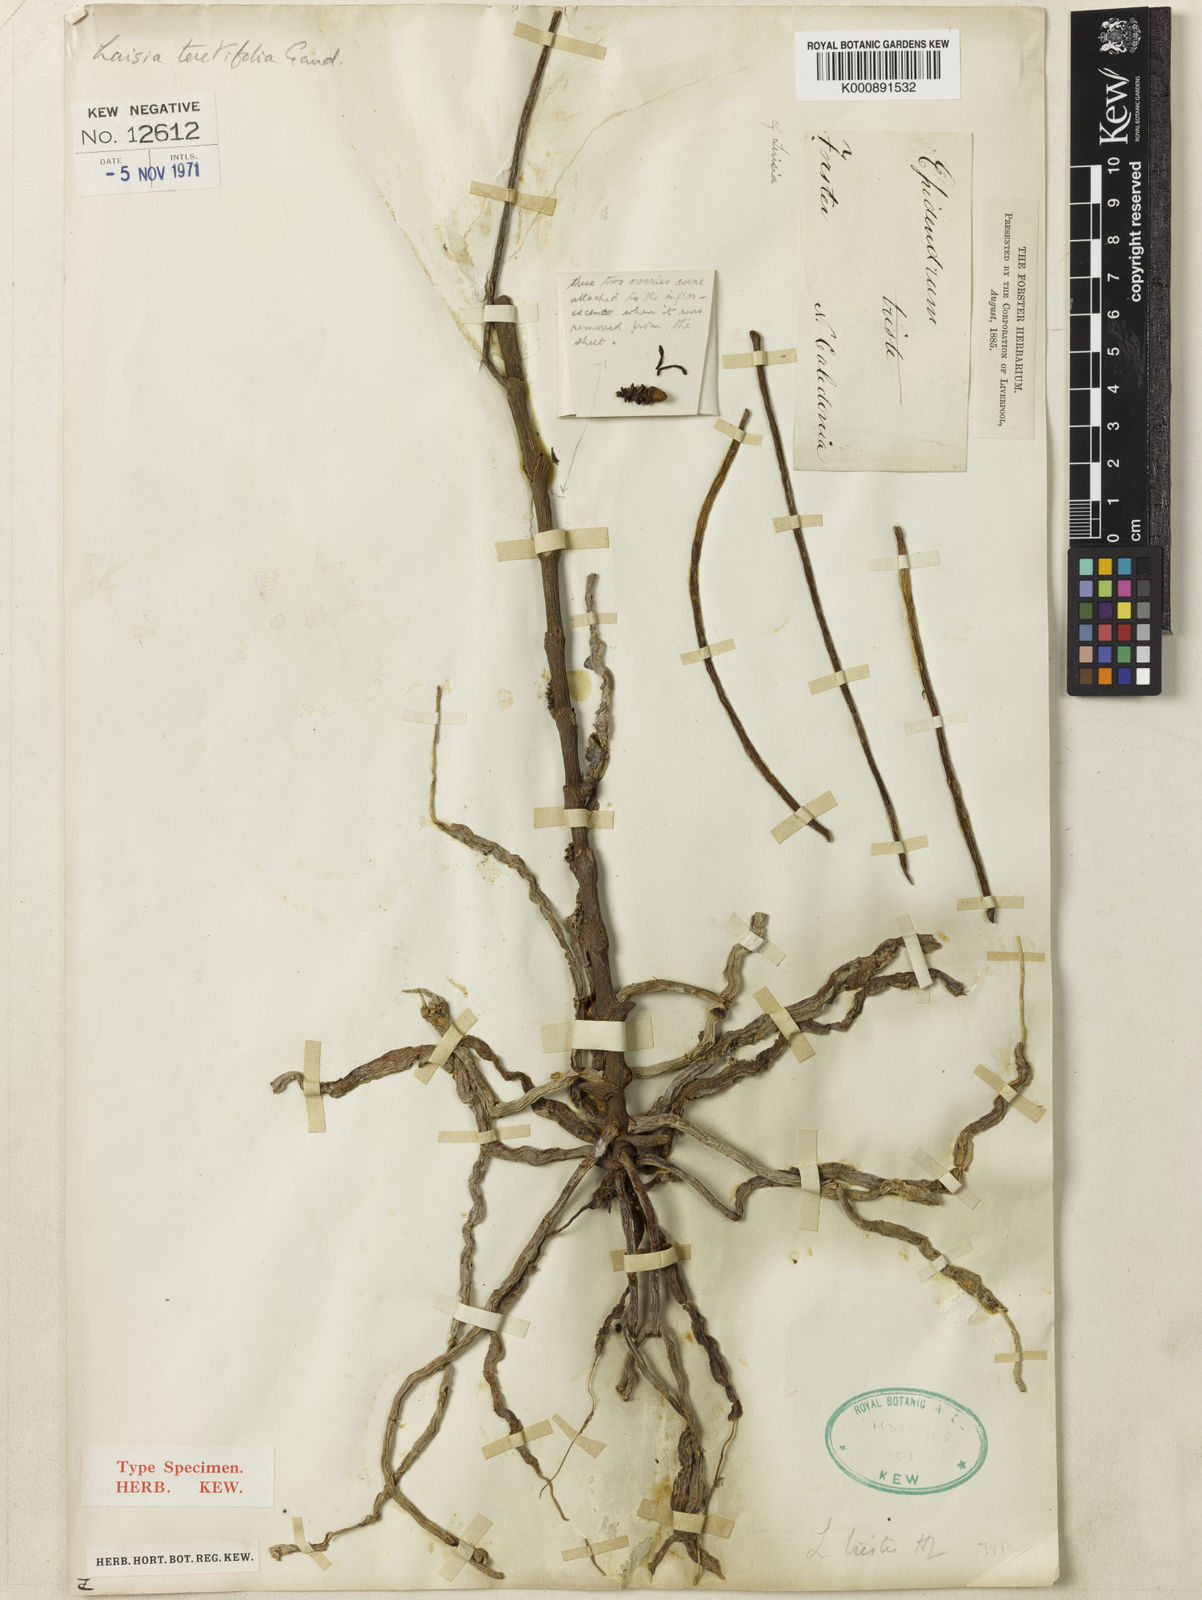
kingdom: Plantae
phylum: Tracheophyta
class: Liliopsida
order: Asparagales
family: Orchidaceae
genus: Luisia
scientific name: Luisia teretifolia
